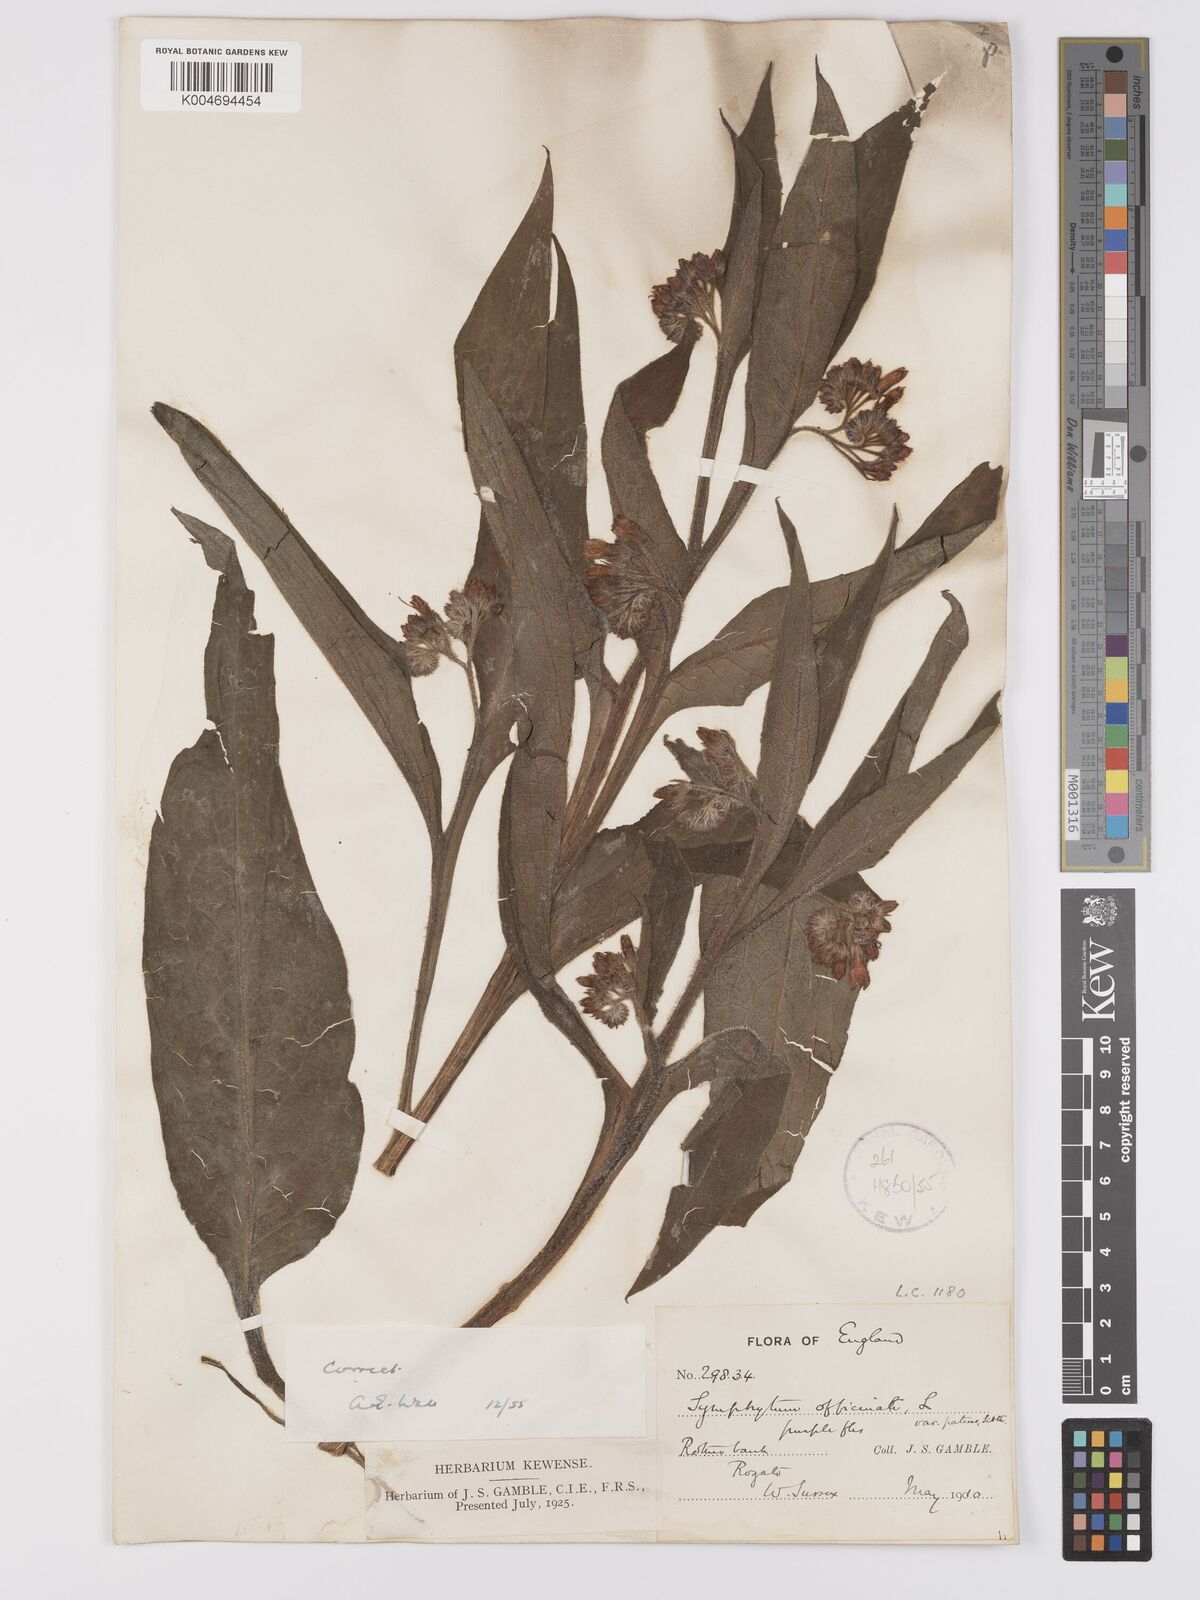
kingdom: Plantae
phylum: Tracheophyta
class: Magnoliopsida
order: Boraginales
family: Boraginaceae
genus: Symphytum
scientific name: Symphytum officinale
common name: Common comfrey
